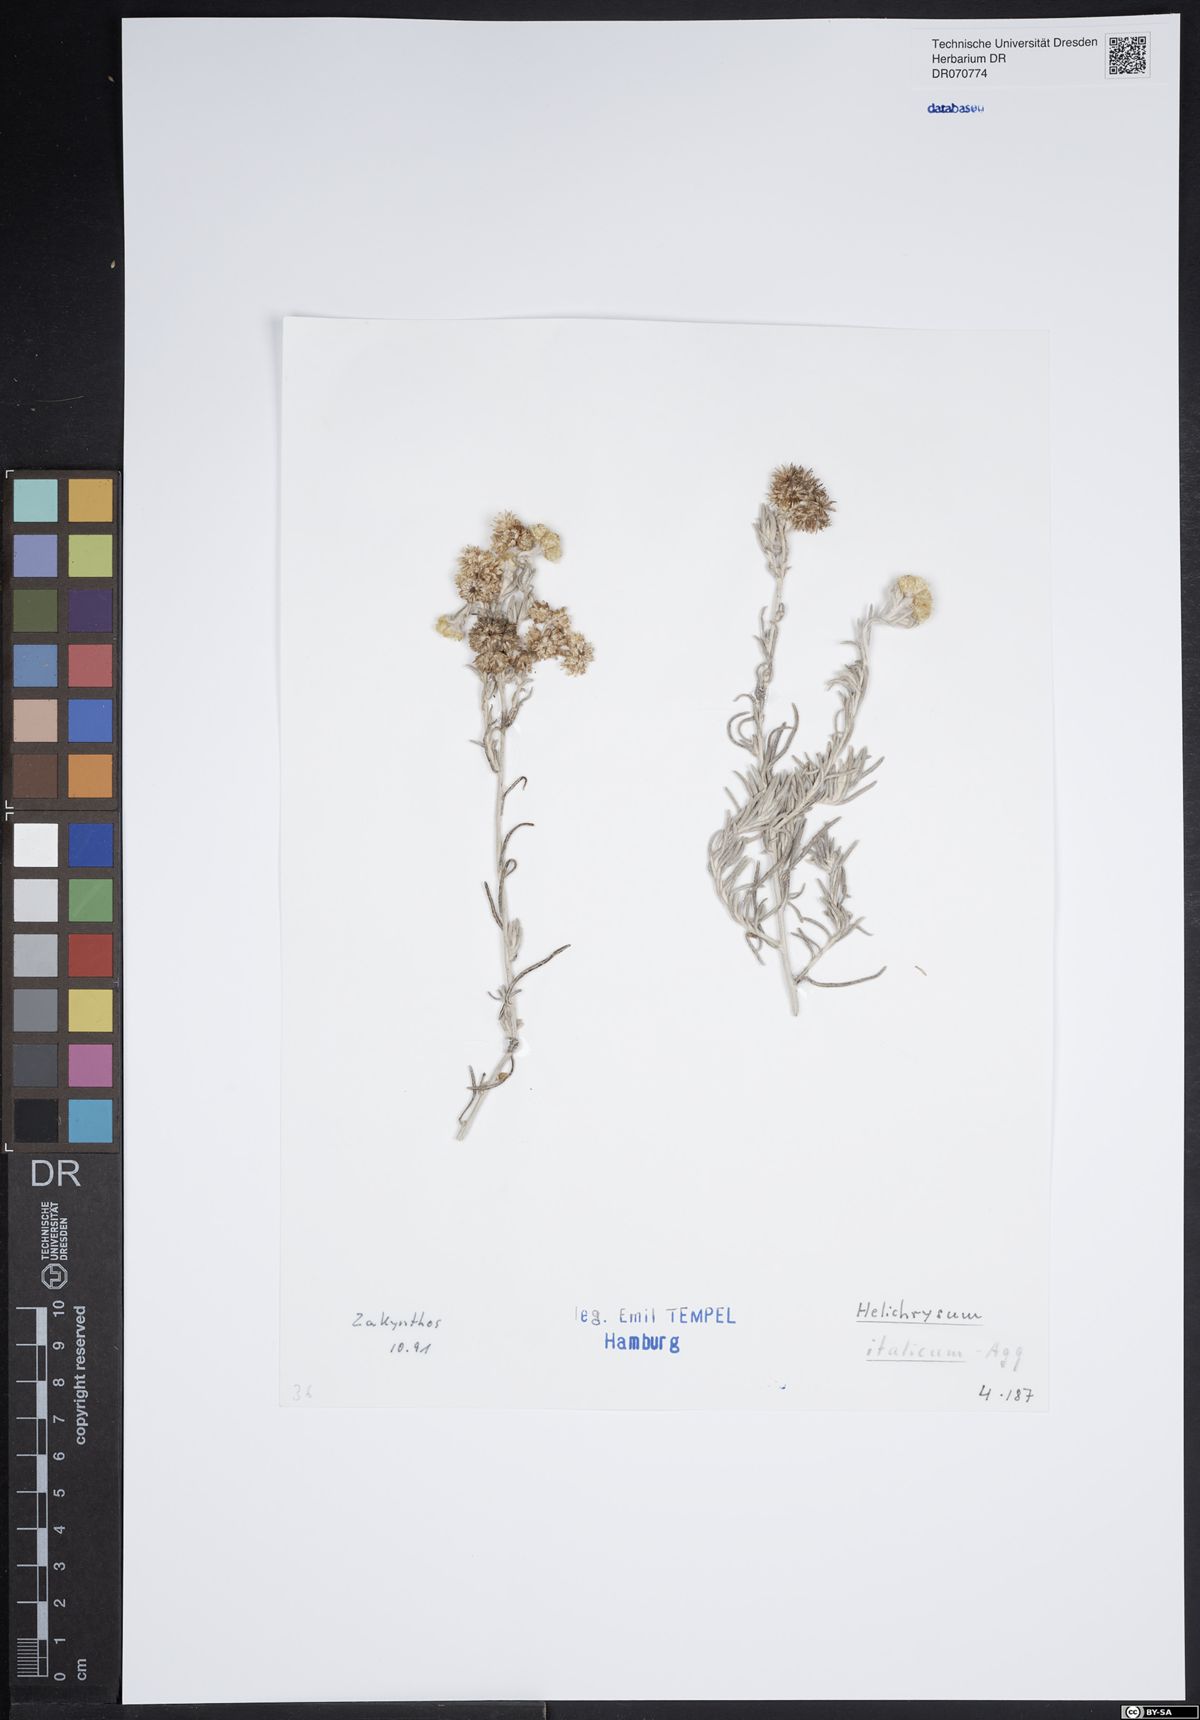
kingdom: Plantae
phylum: Tracheophyta
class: Magnoliopsida
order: Asterales
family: Asteraceae
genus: Helichrysum
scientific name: Helichrysum italicum
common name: Curryplant
